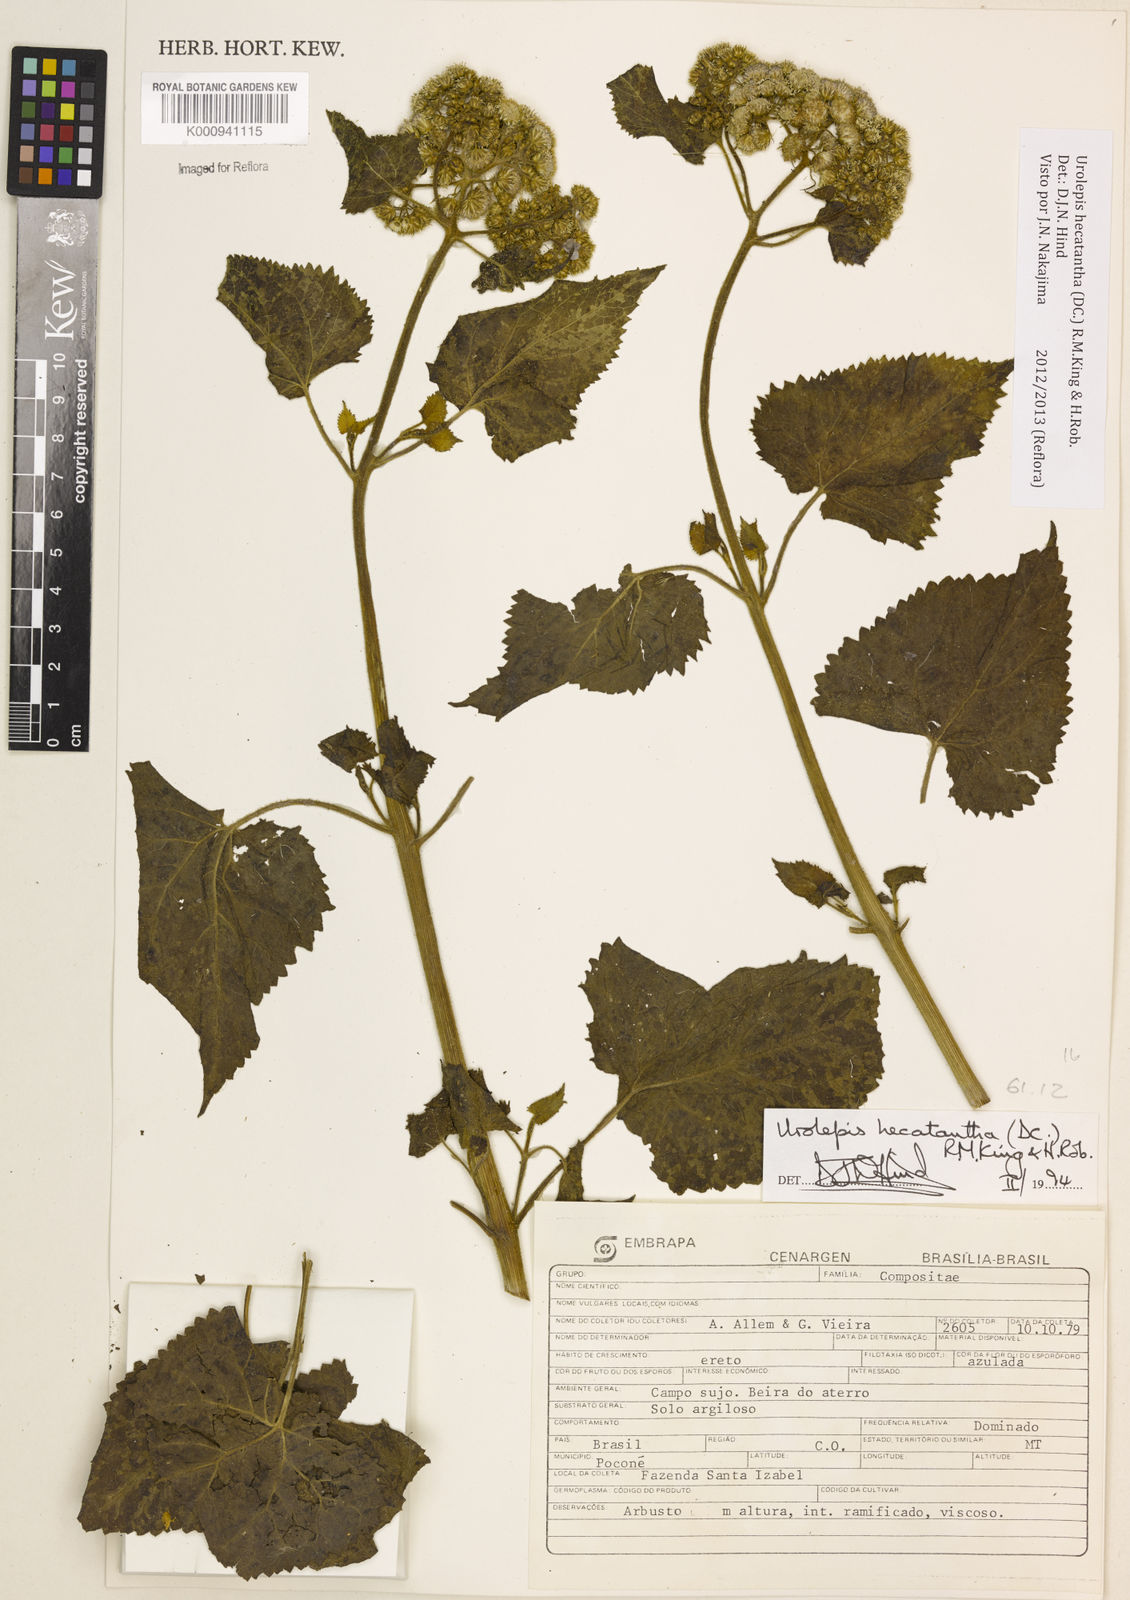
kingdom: Plantae
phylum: Tracheophyta
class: Magnoliopsida
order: Asterales
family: Asteraceae
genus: Urolepis
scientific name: Urolepis hecatantha
